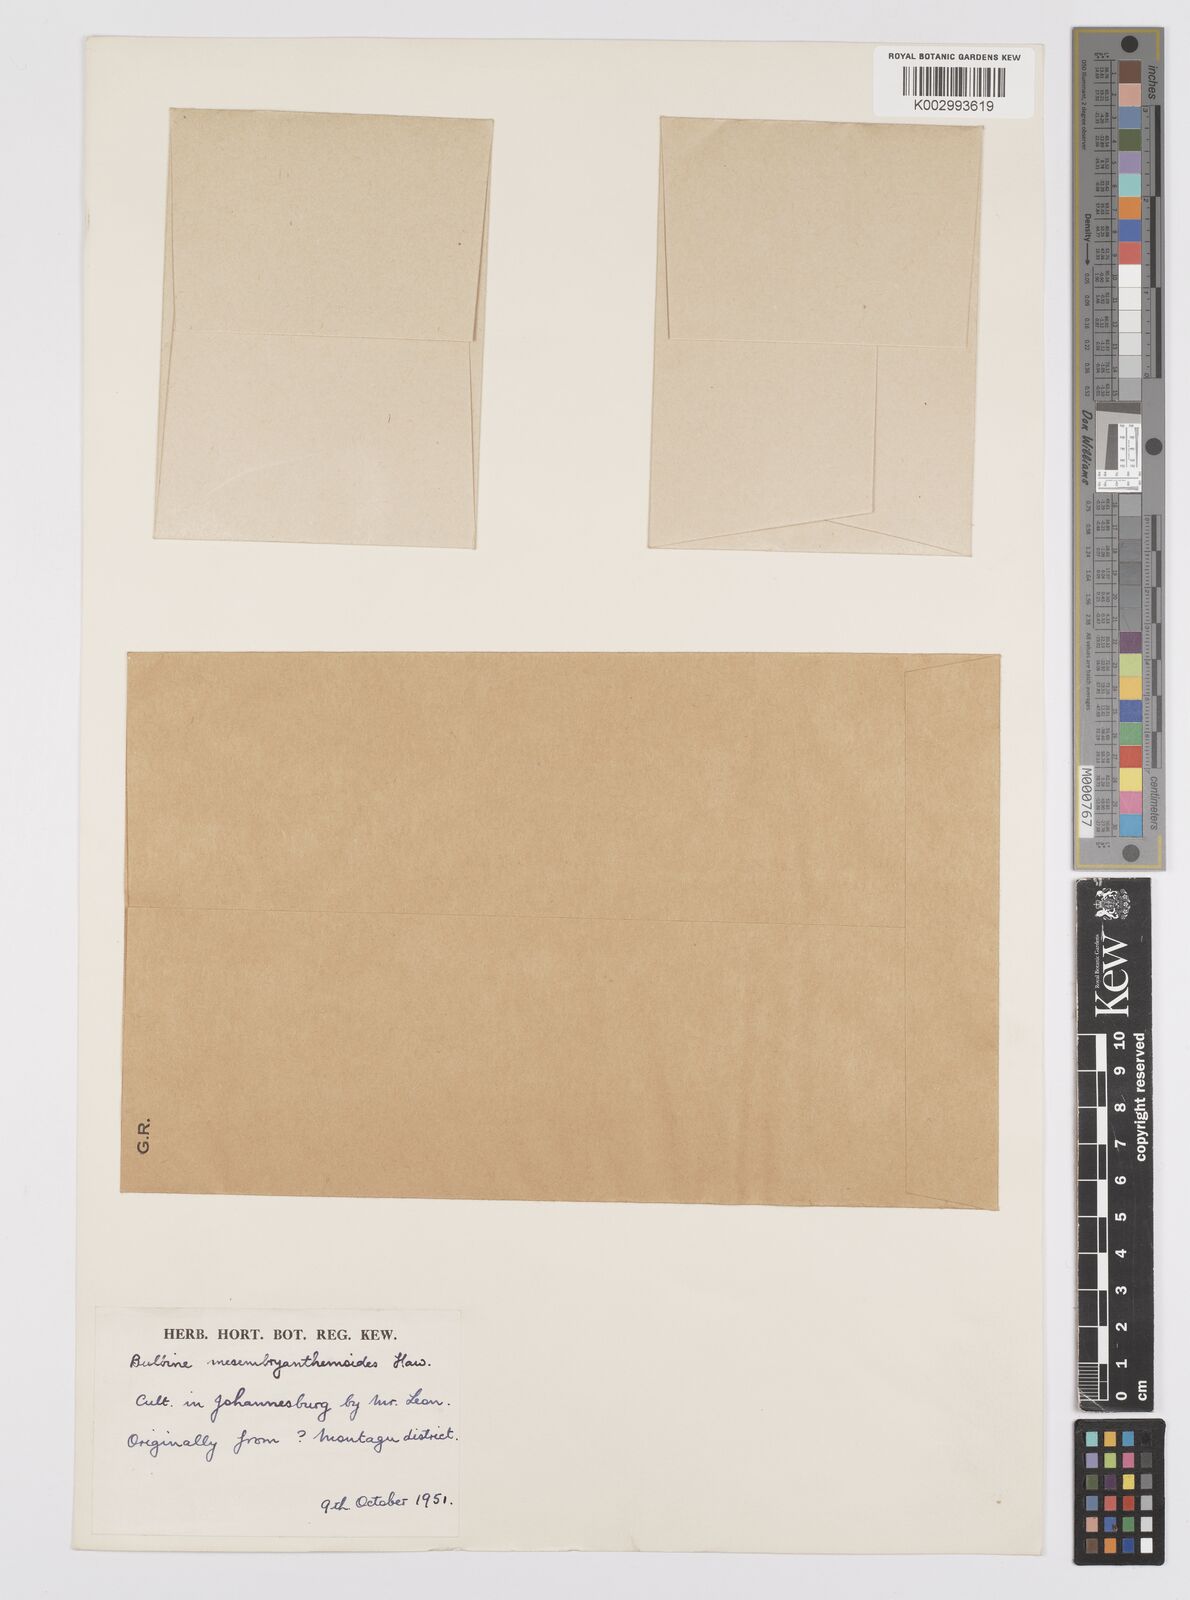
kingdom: Plantae
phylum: Tracheophyta
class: Liliopsida
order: Asparagales
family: Asphodelaceae
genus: Bulbine
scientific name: Bulbine mesembryanthemoides
